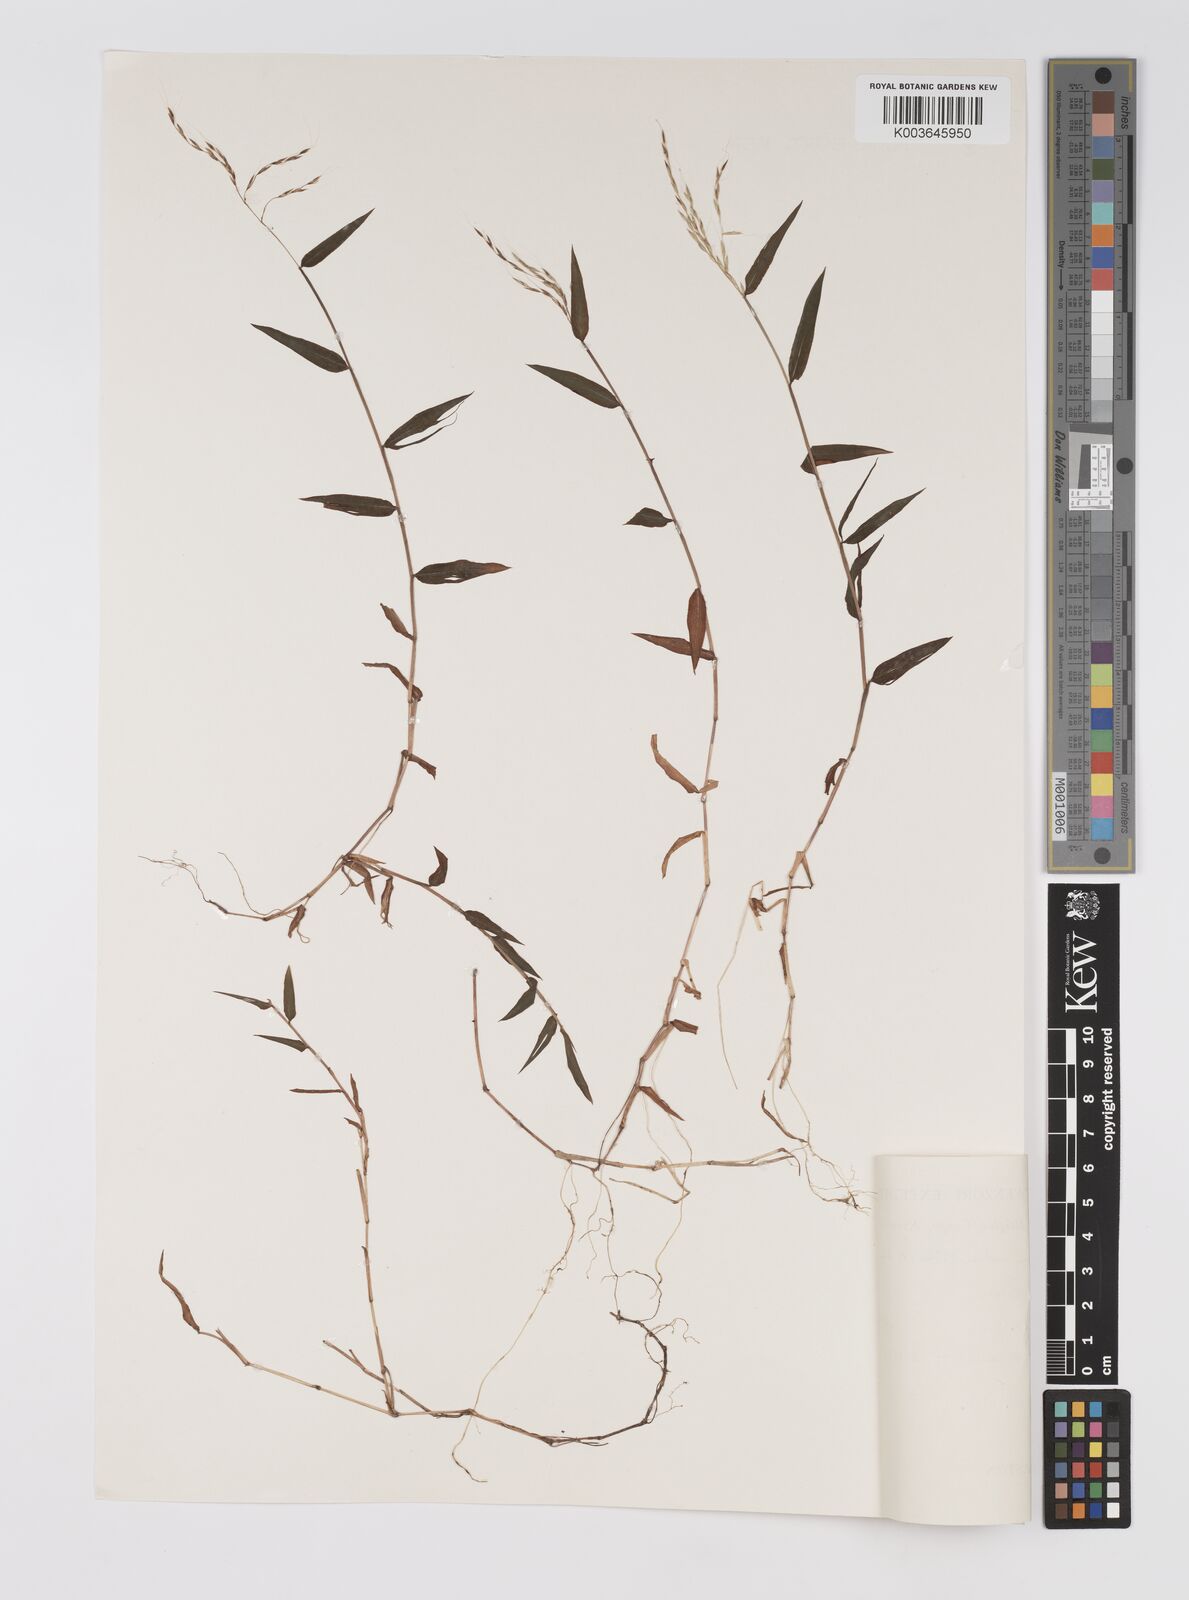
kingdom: Plantae
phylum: Tracheophyta
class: Liliopsida
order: Poales
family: Poaceae
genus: Microstegium
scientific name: Microstegium nudum
